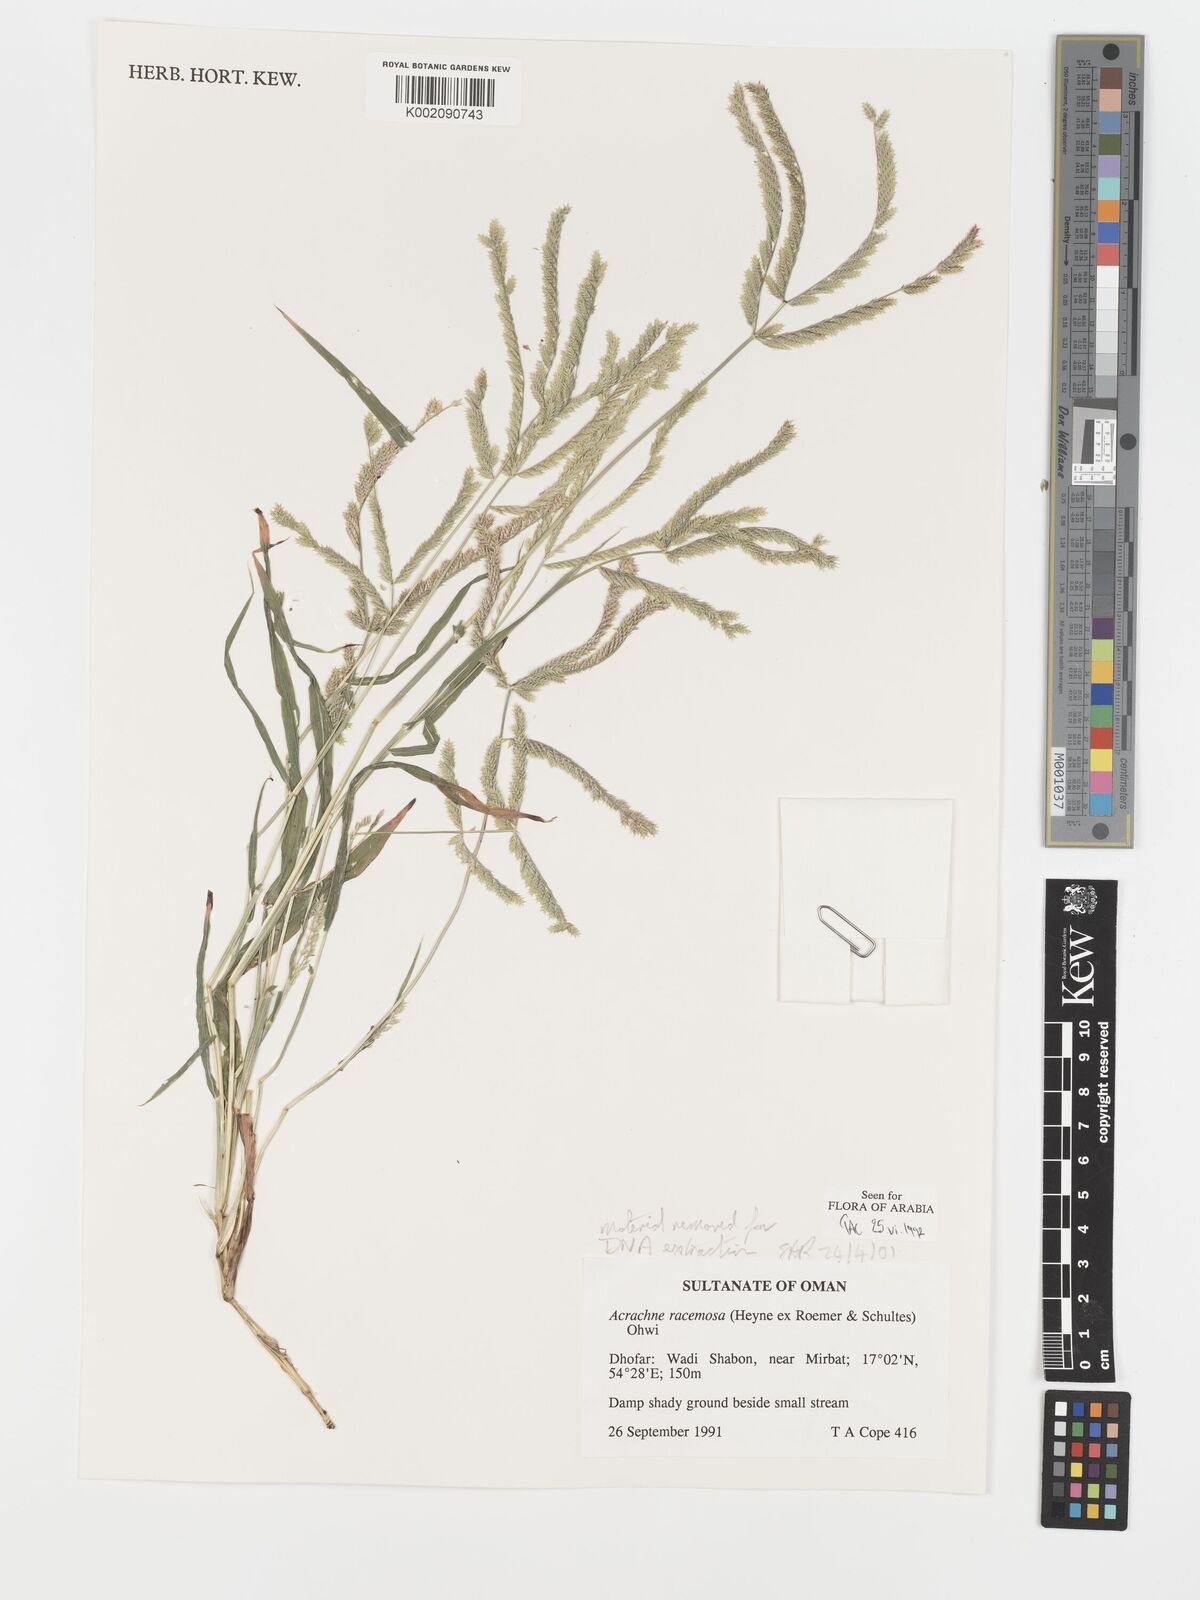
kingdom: Plantae
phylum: Tracheophyta
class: Liliopsida
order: Poales
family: Poaceae
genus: Acrachne
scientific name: Acrachne racemosa
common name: Goosegrass
